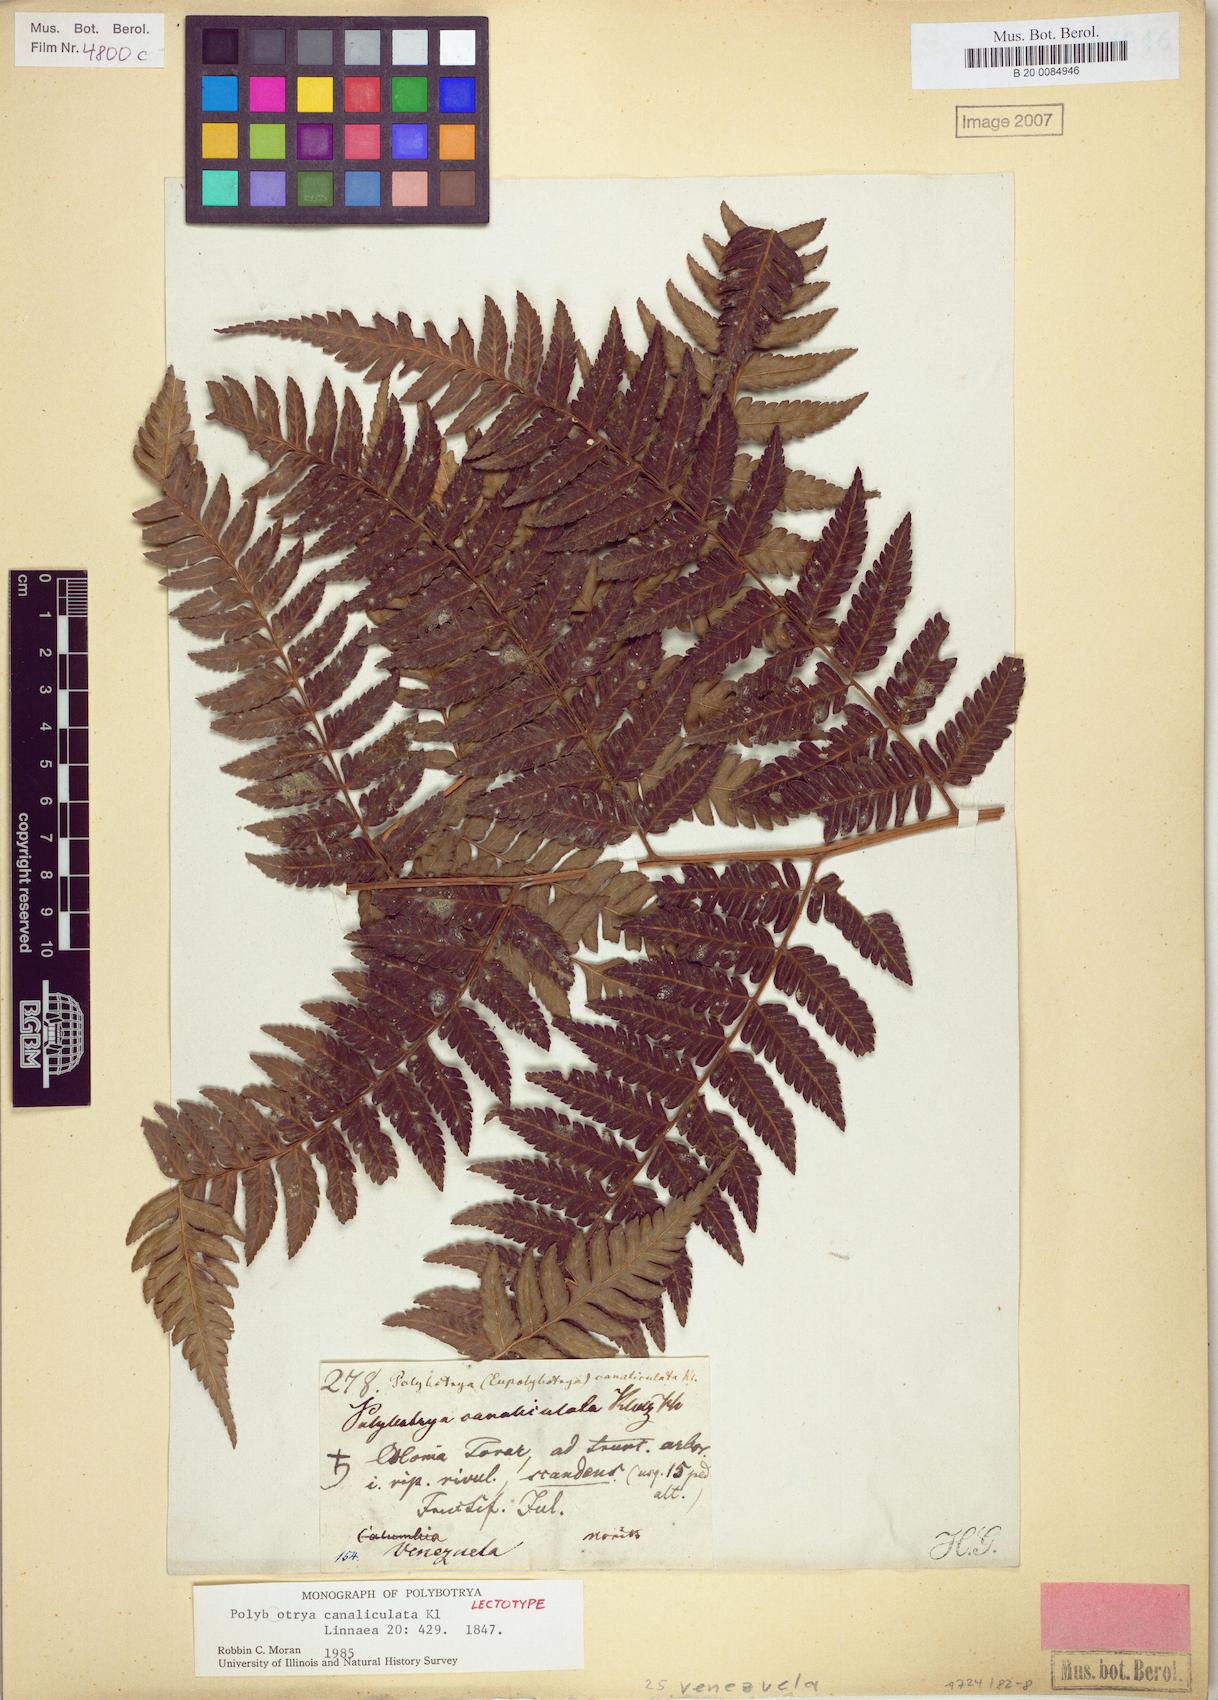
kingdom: Plantae
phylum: Tracheophyta
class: Polypodiopsida
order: Polypodiales
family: Dryopteridaceae
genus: Polybotrya
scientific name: Polybotrya canaliculata
